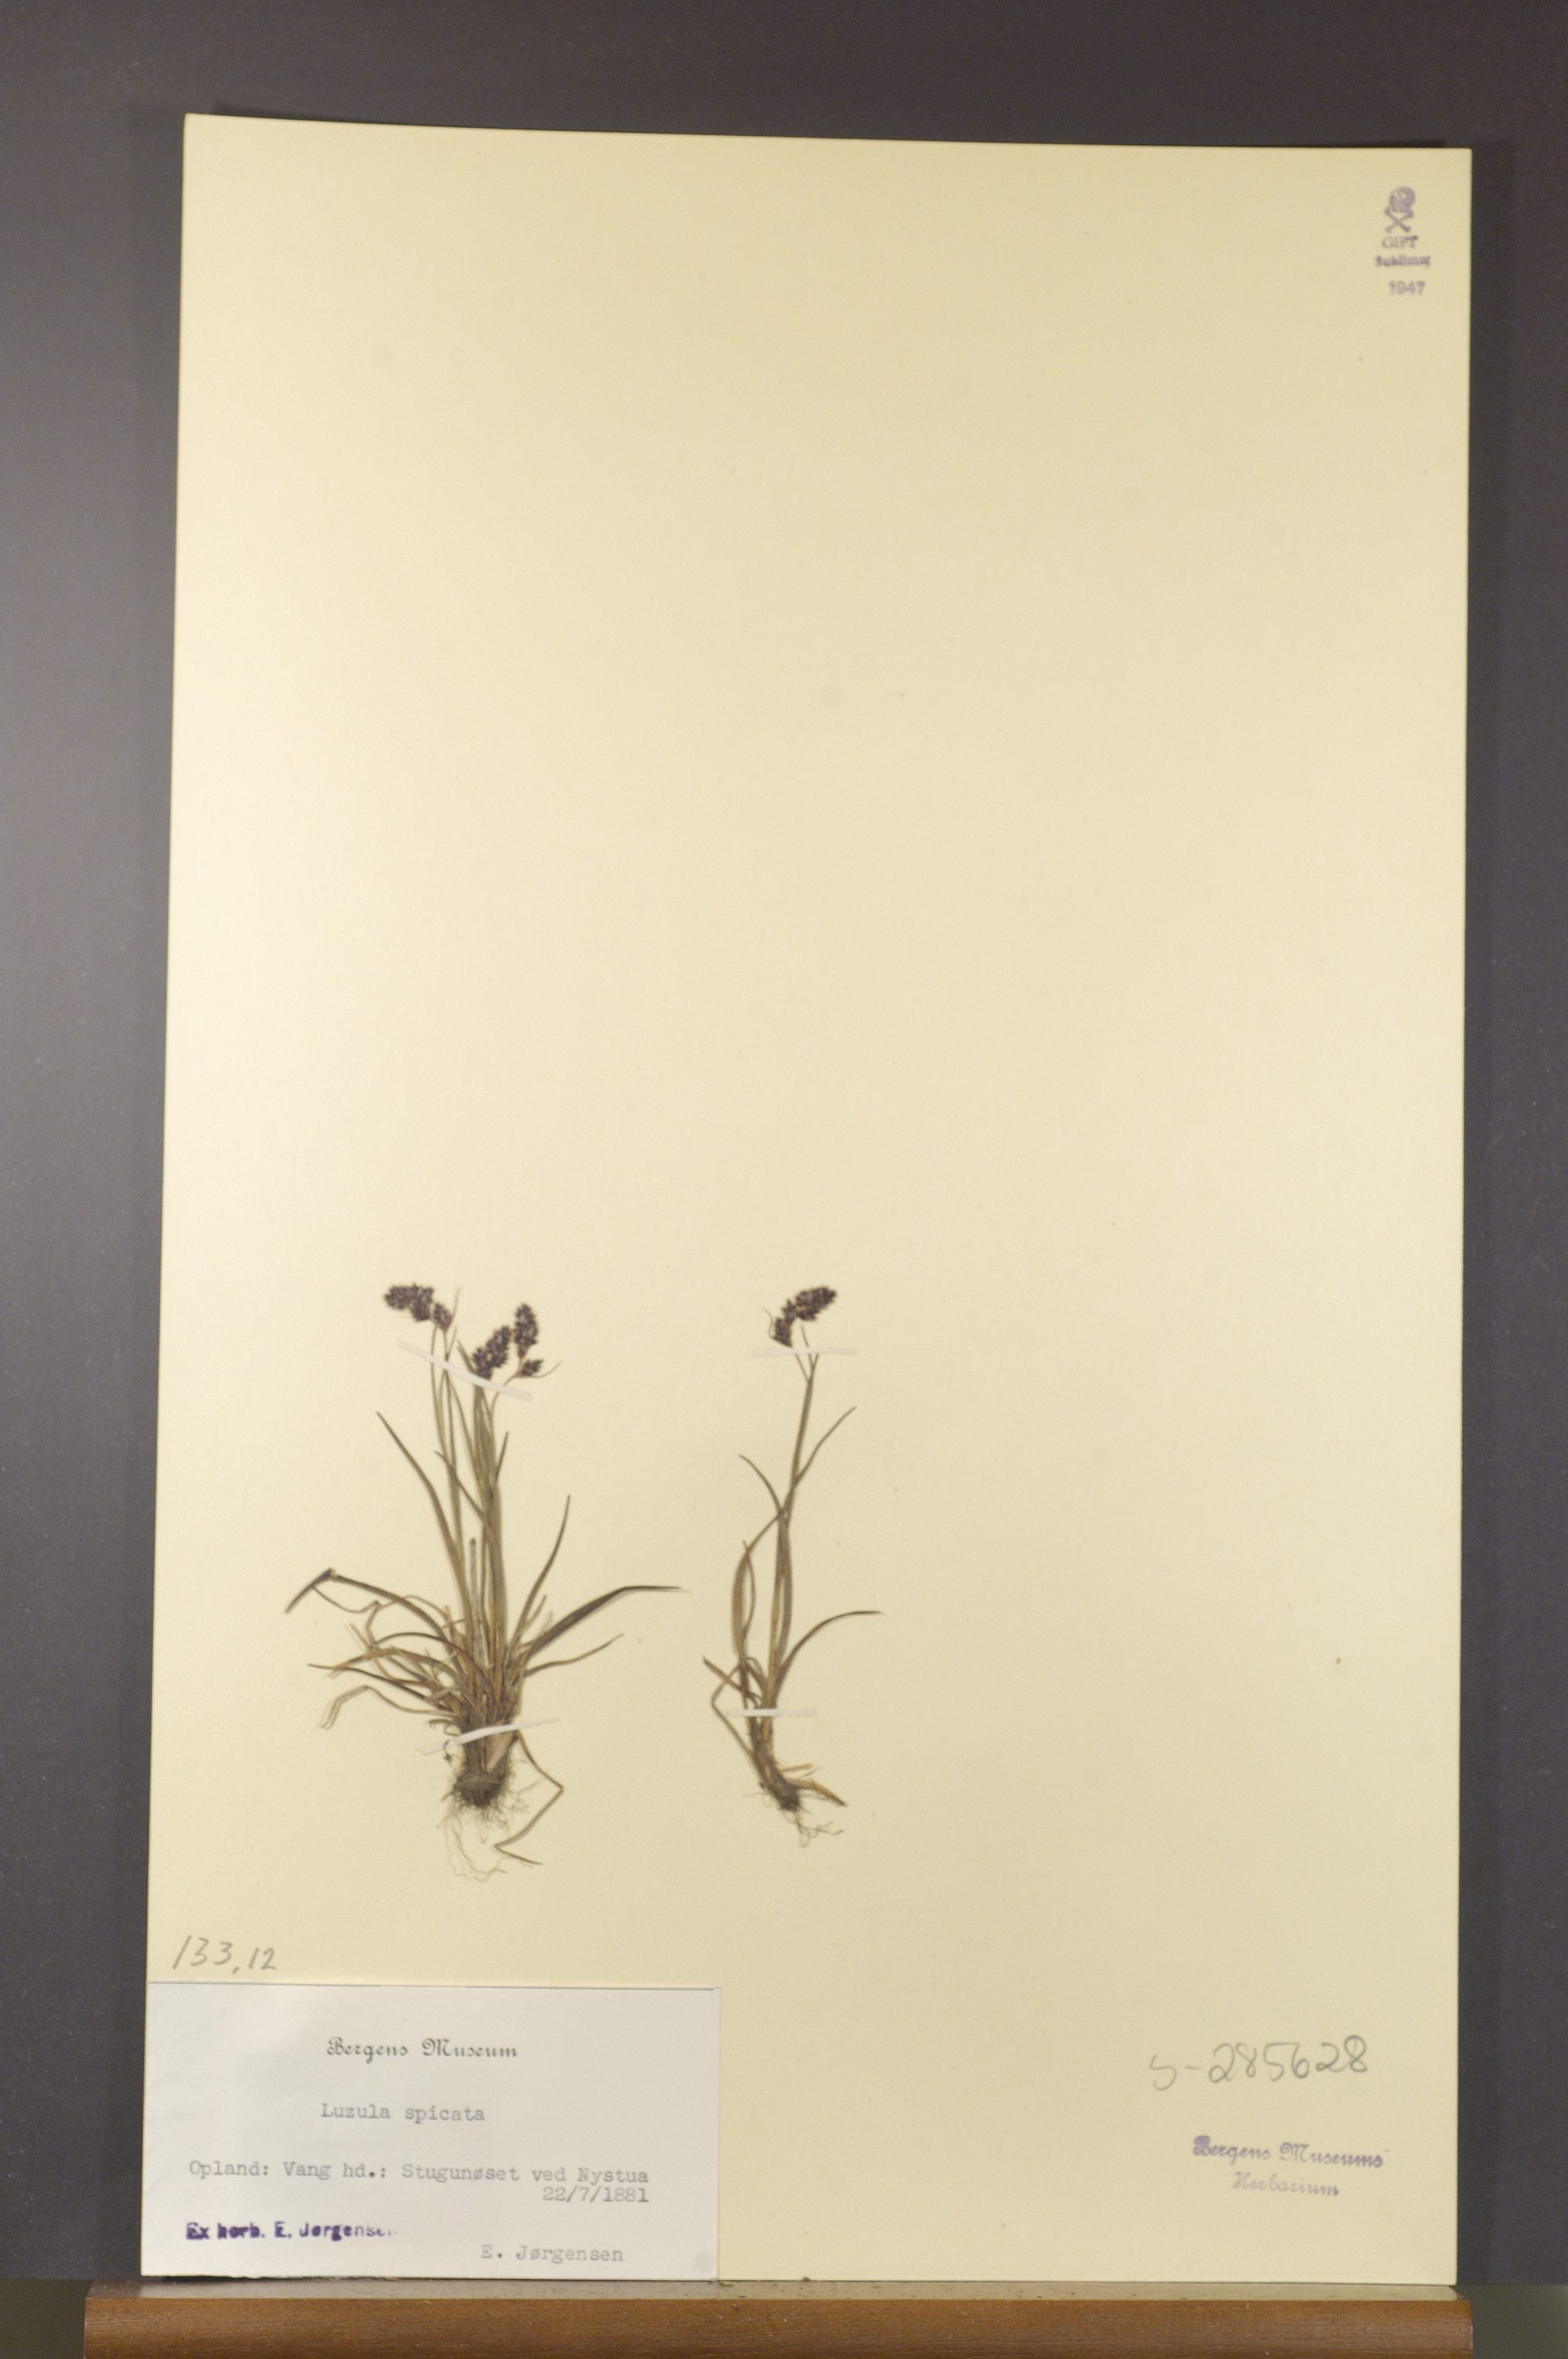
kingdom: Plantae
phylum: Tracheophyta
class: Liliopsida
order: Poales
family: Juncaceae
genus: Luzula
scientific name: Luzula spicata
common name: Spiked wood-rush
